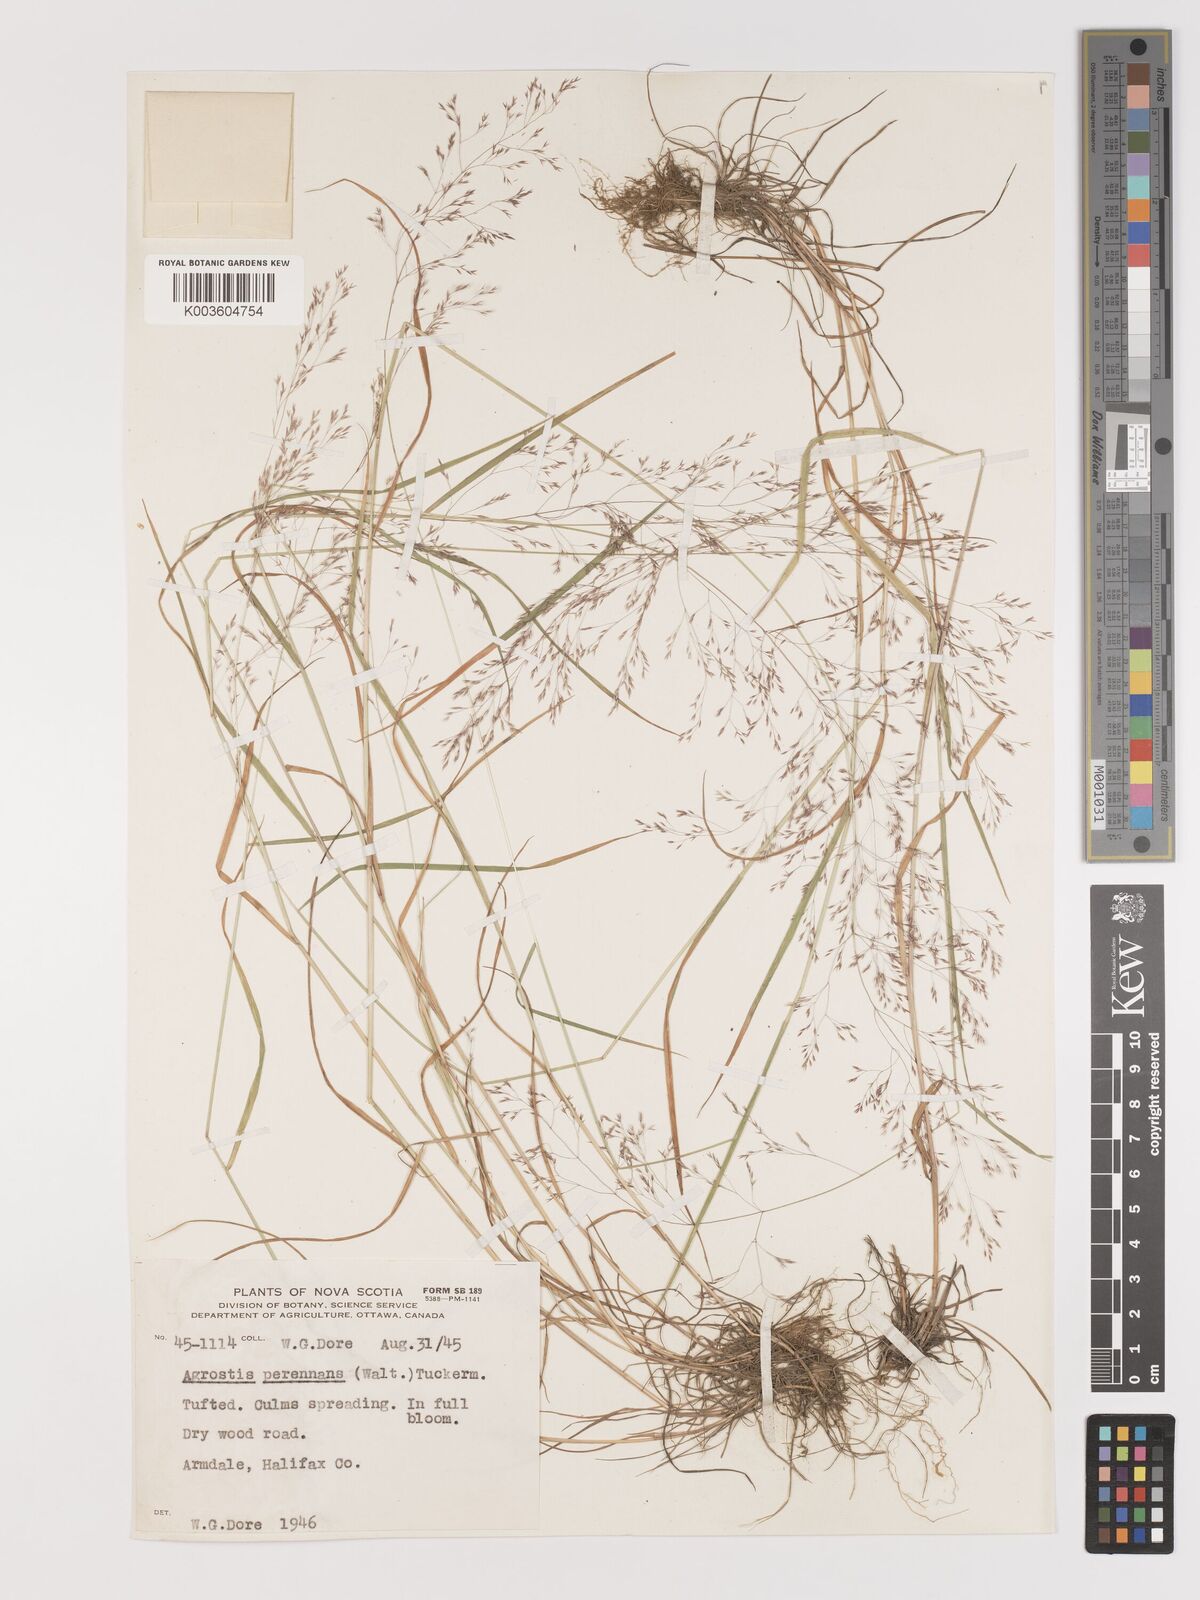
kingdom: Plantae
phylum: Tracheophyta
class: Liliopsida
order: Poales
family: Poaceae
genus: Agrostis
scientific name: Agrostis perennans
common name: Autumn bent
